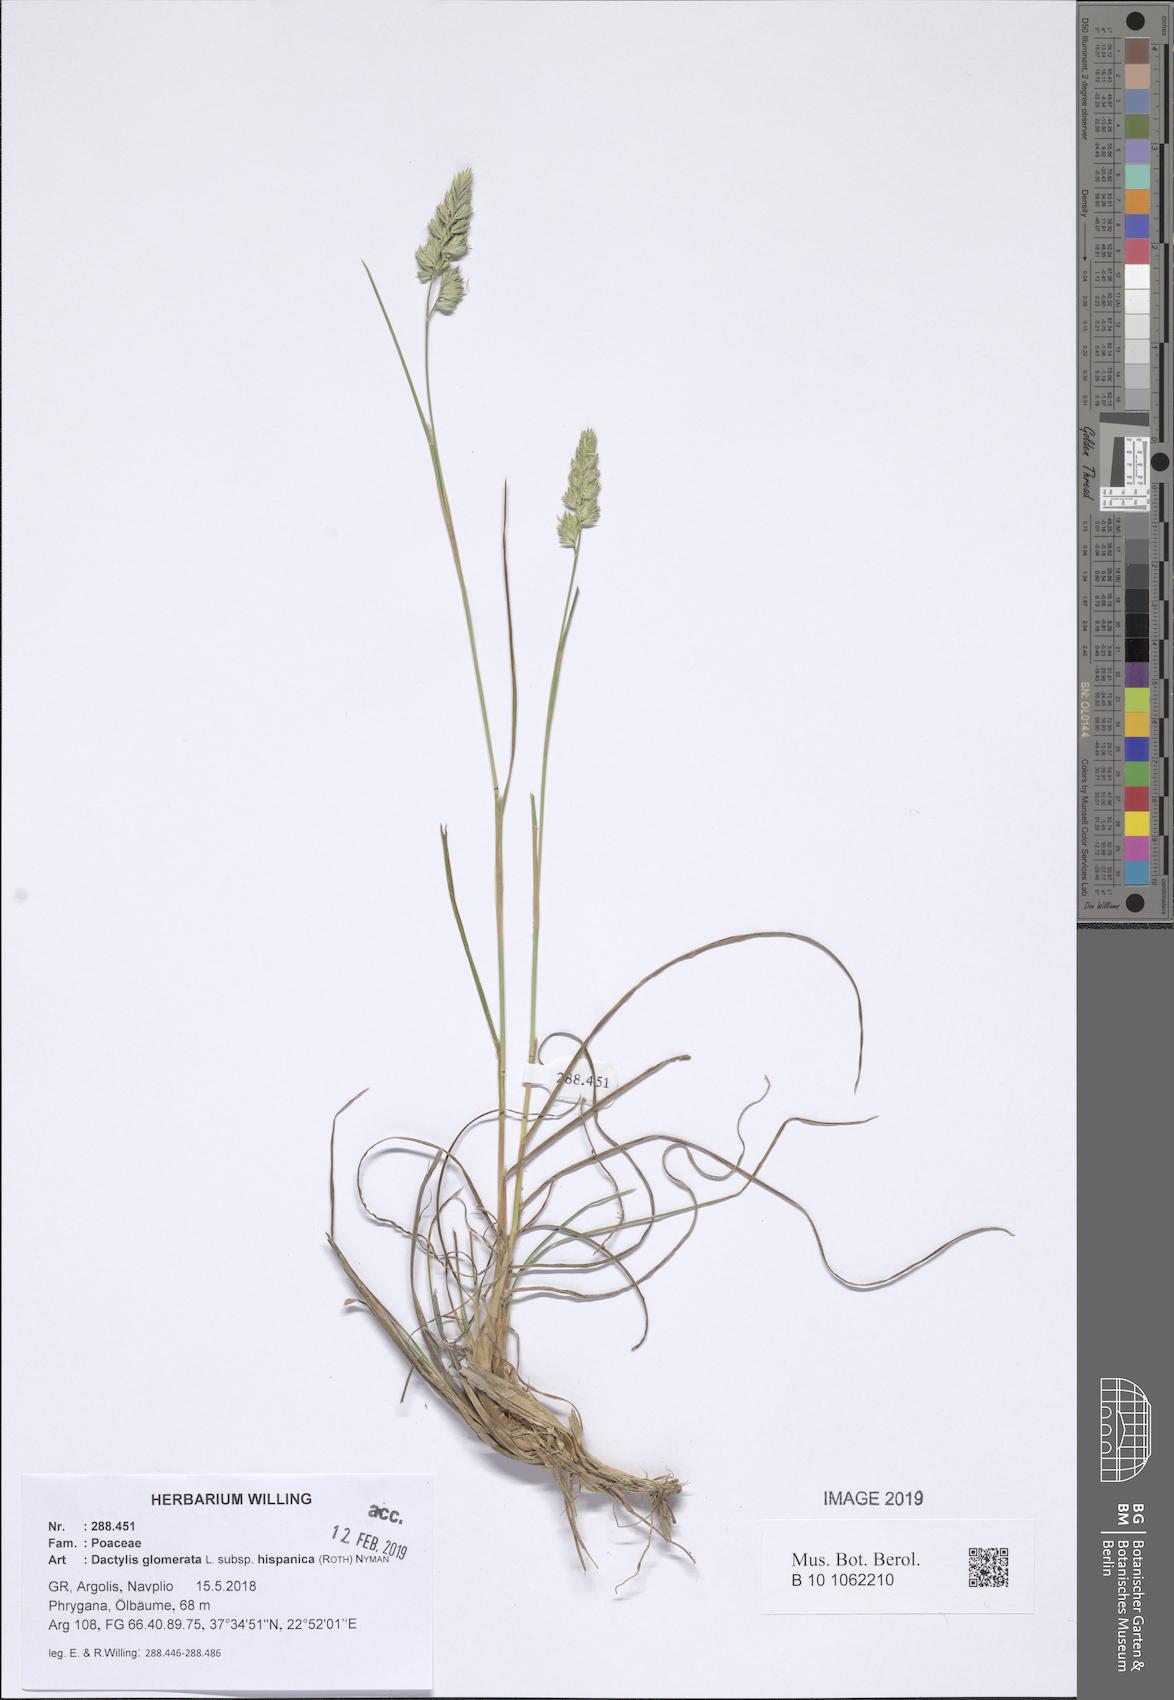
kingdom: Plantae
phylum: Tracheophyta
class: Liliopsida
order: Poales
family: Poaceae
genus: Dactylis
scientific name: Dactylis glomerata
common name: Orchardgrass
